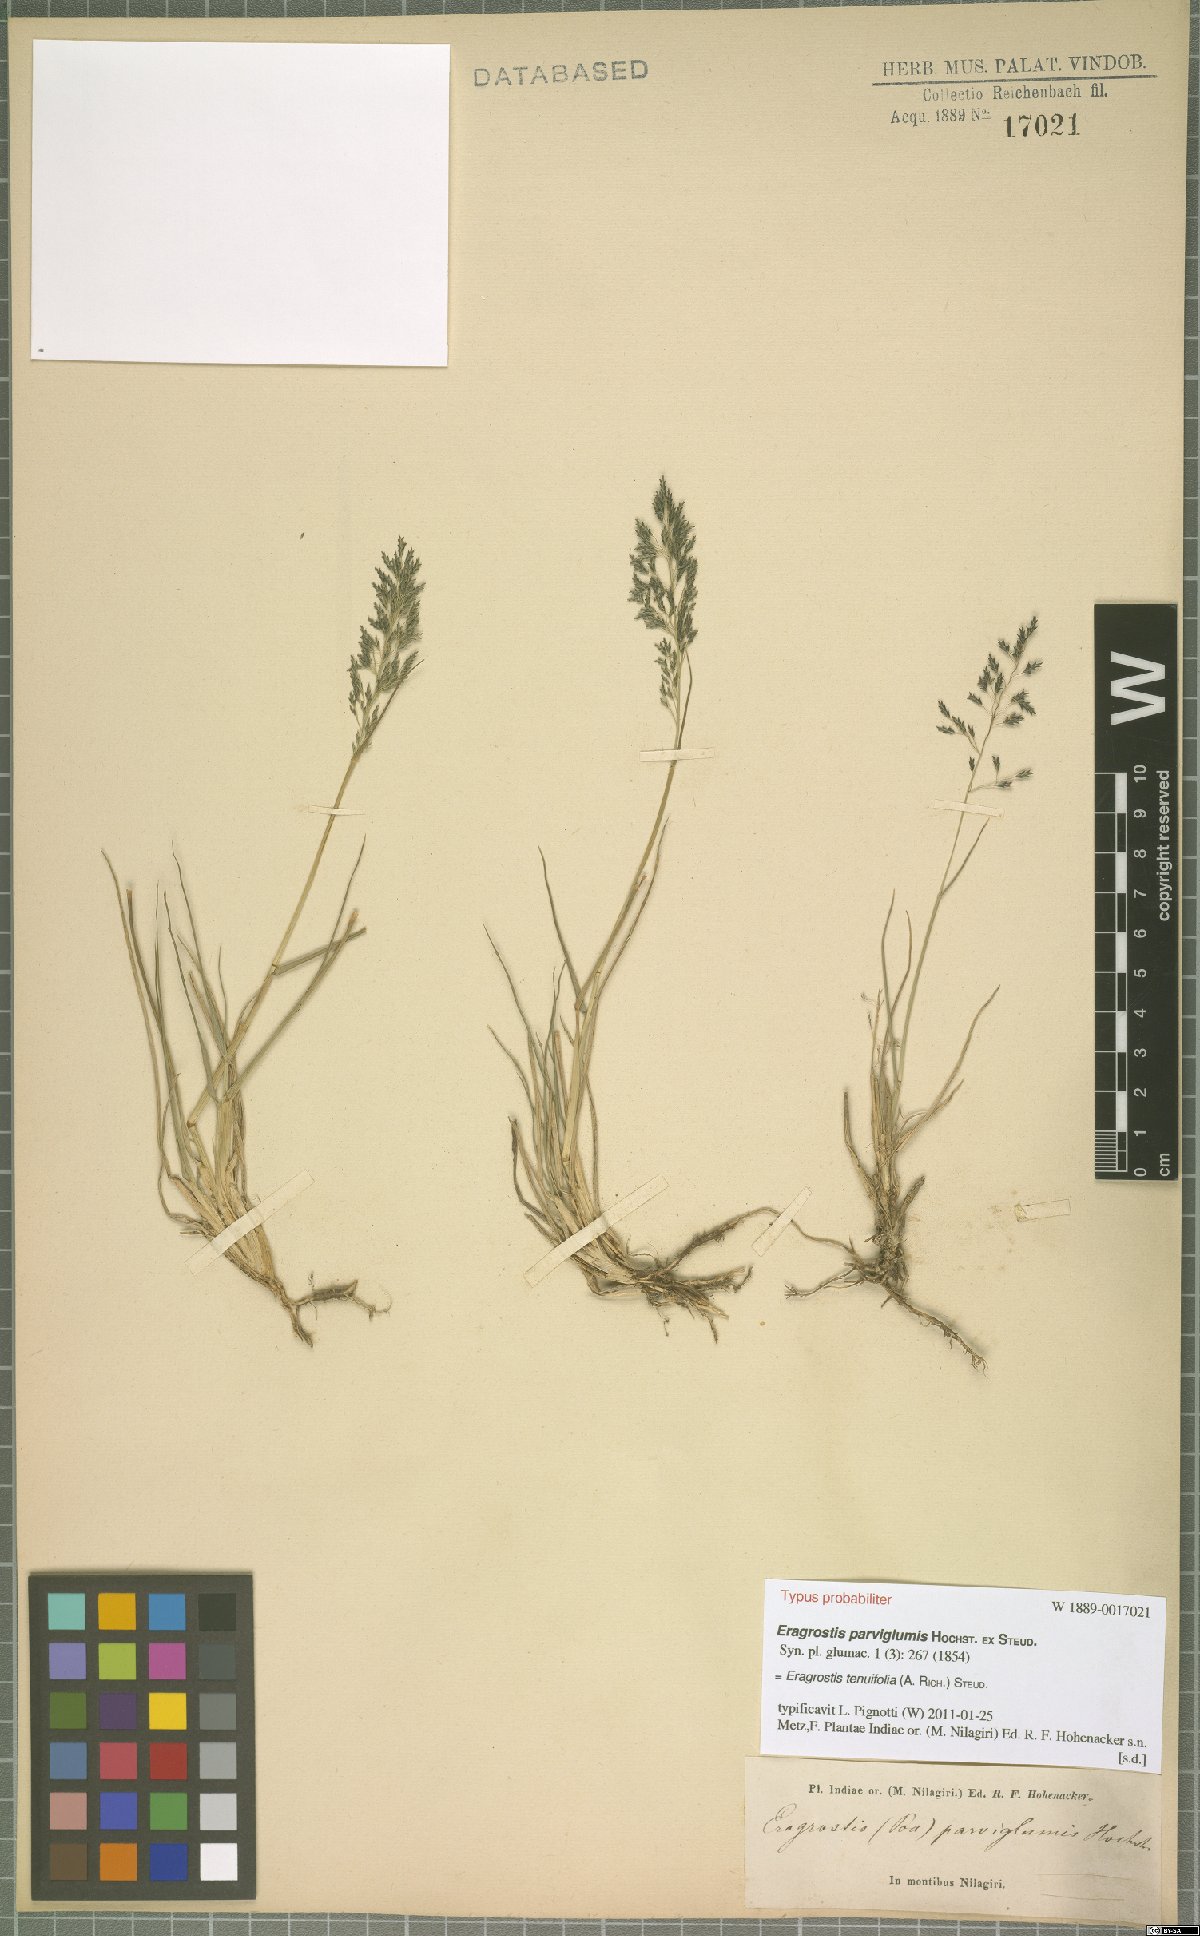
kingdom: Plantae
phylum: Tracheophyta
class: Liliopsida
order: Poales
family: Poaceae
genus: Eragrostis
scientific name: Eragrostis tenuifolia
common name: Elastic grass
